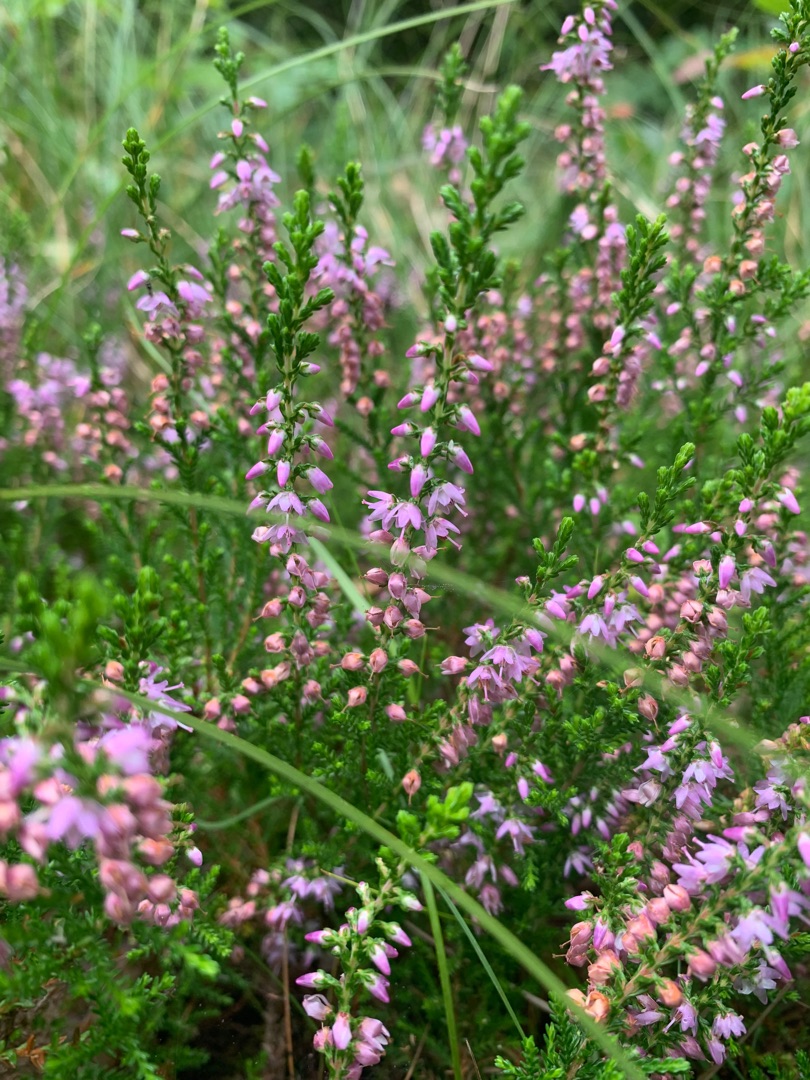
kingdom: Plantae
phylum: Tracheophyta
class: Magnoliopsida
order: Ericales
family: Ericaceae
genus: Calluna
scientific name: Calluna vulgaris
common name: Hedelyng
